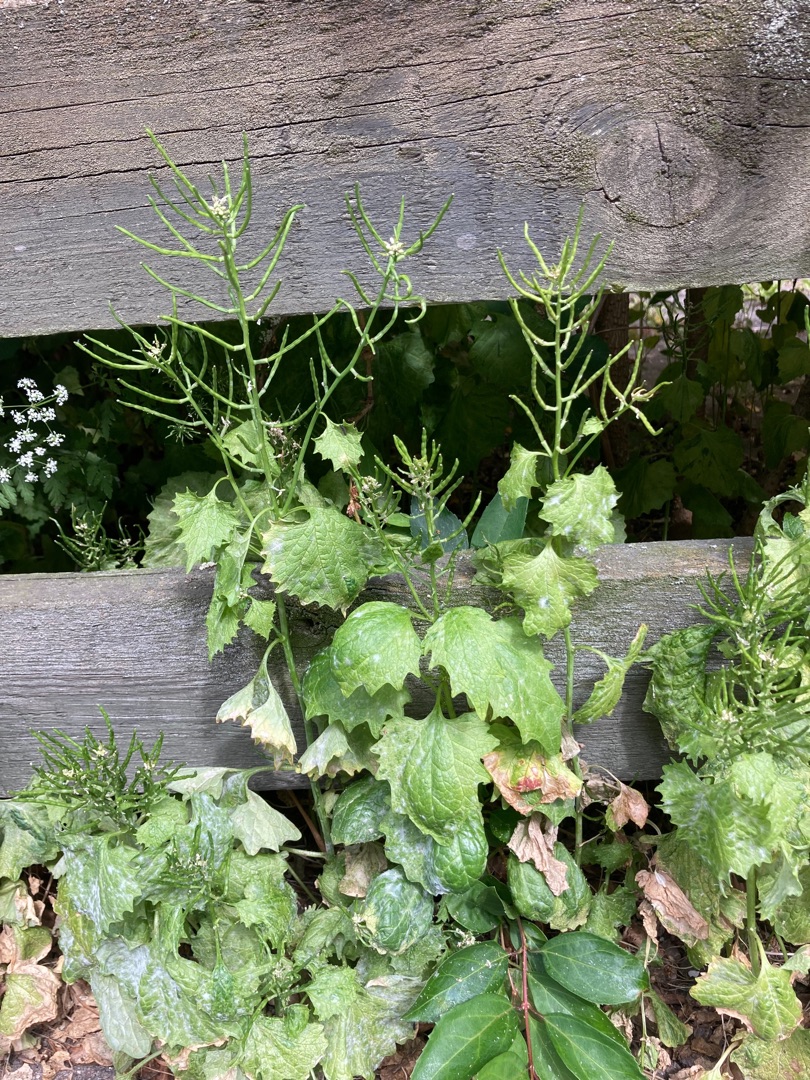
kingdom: Plantae
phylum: Tracheophyta
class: Magnoliopsida
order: Brassicales
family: Brassicaceae
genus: Alliaria
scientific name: Alliaria petiolata
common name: Løgkarse
